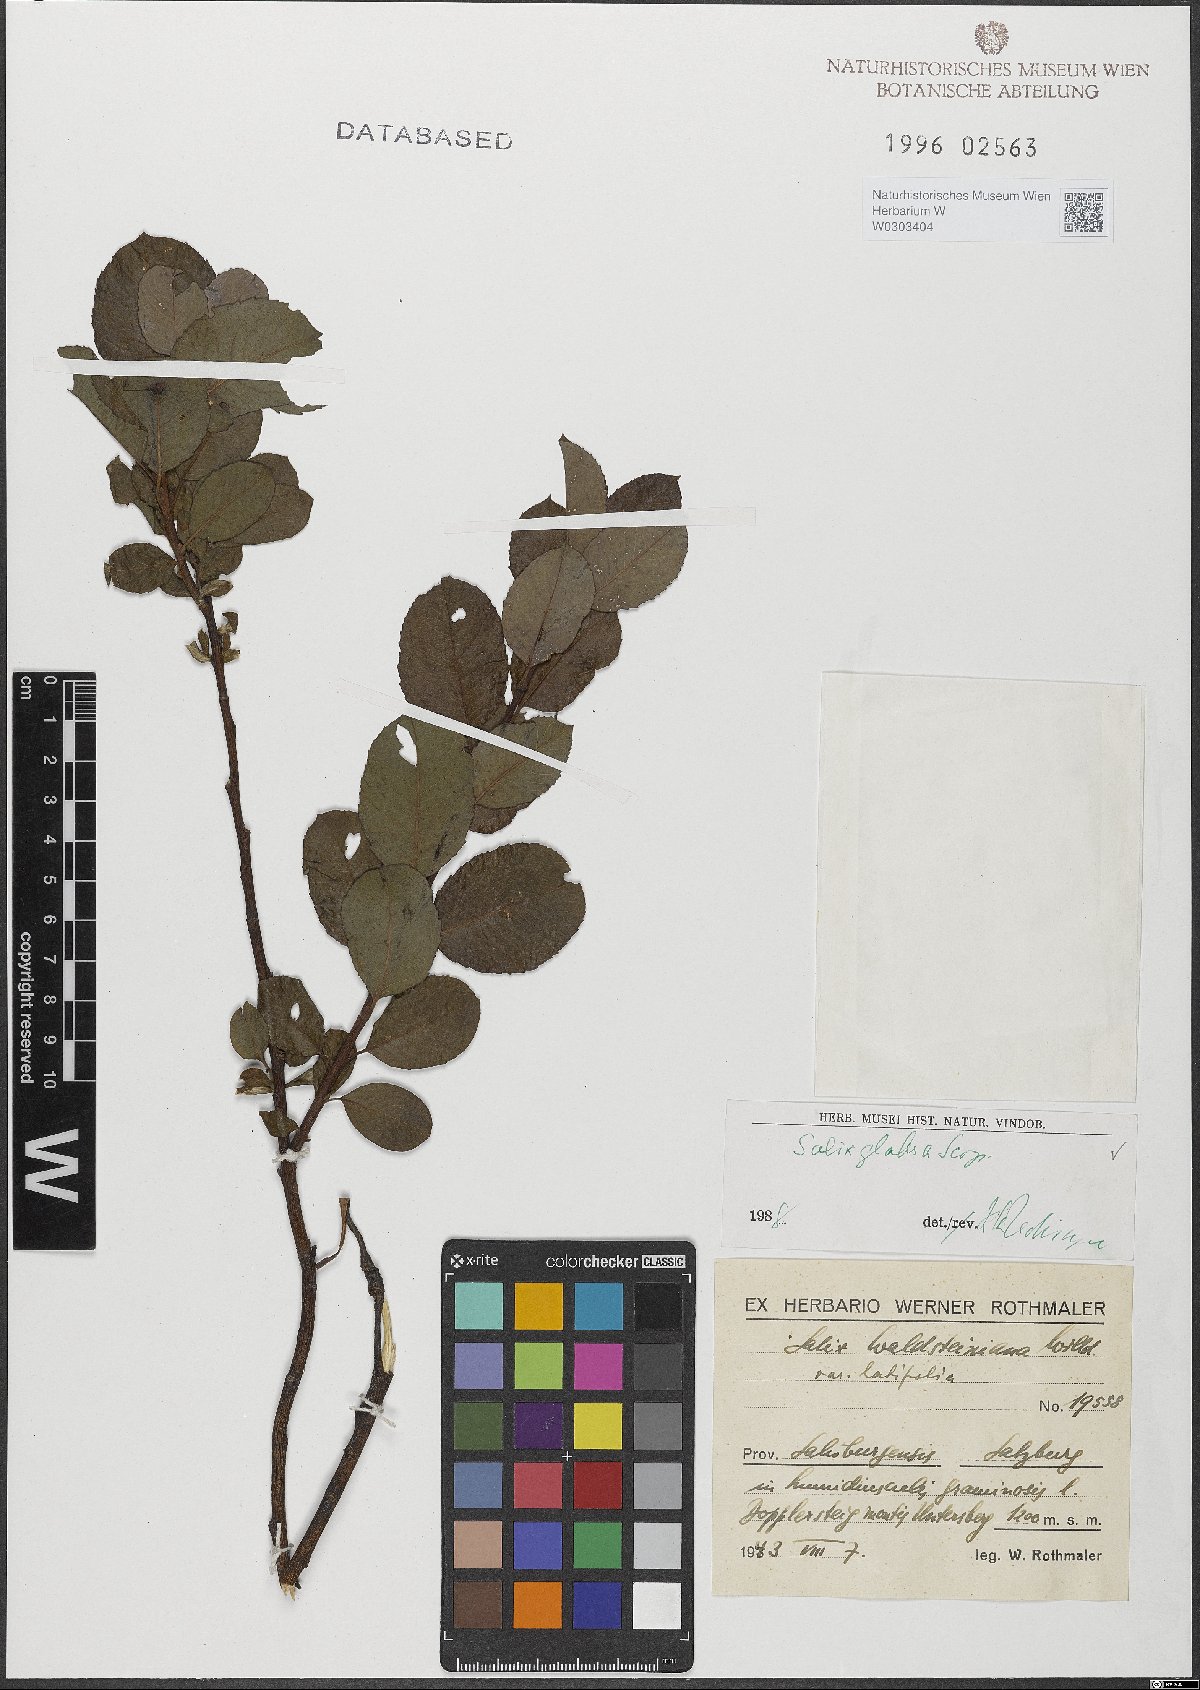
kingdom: Plantae
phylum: Tracheophyta
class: Magnoliopsida
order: Malpighiales
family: Salicaceae
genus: Salix
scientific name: Salix glabra
